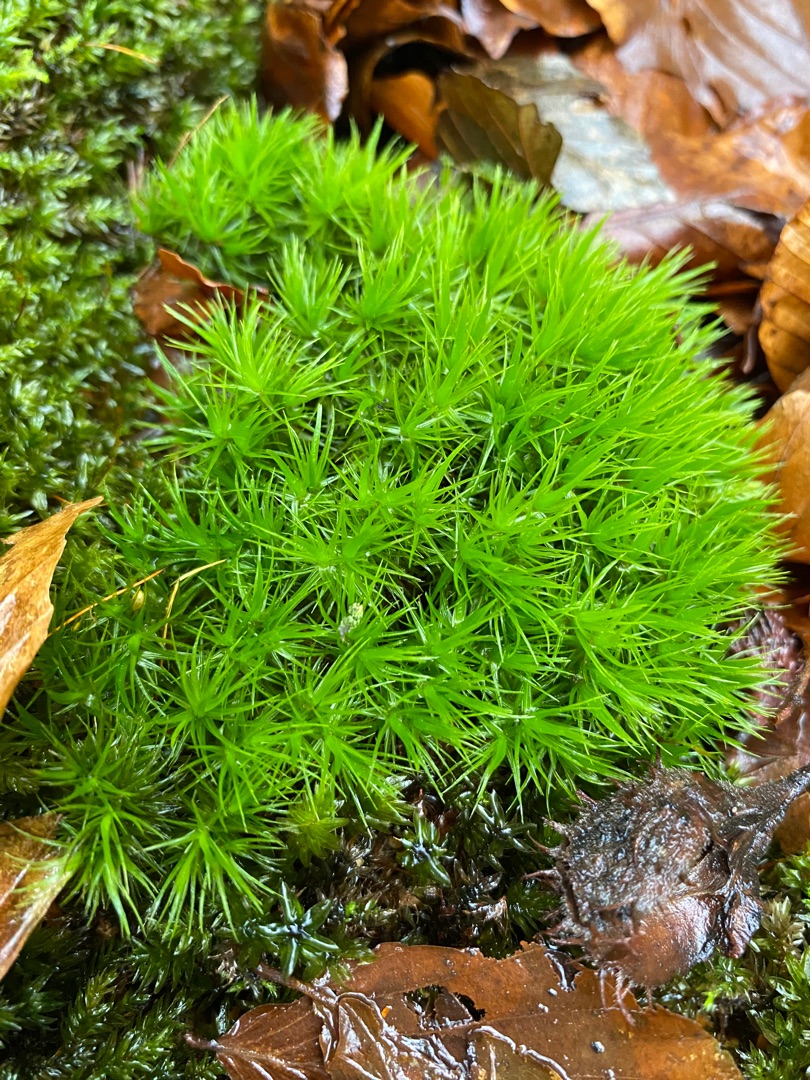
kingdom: Plantae
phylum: Bryophyta
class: Bryopsida
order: Dicranales
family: Dicranaceae
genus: Dicranum
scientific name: Dicranum
